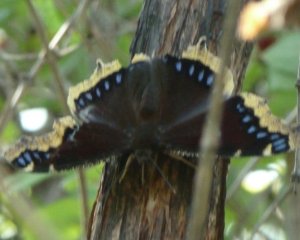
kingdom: Animalia
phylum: Arthropoda
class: Insecta
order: Lepidoptera
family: Nymphalidae
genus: Nymphalis
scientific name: Nymphalis antiopa
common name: Mourning Cloak
